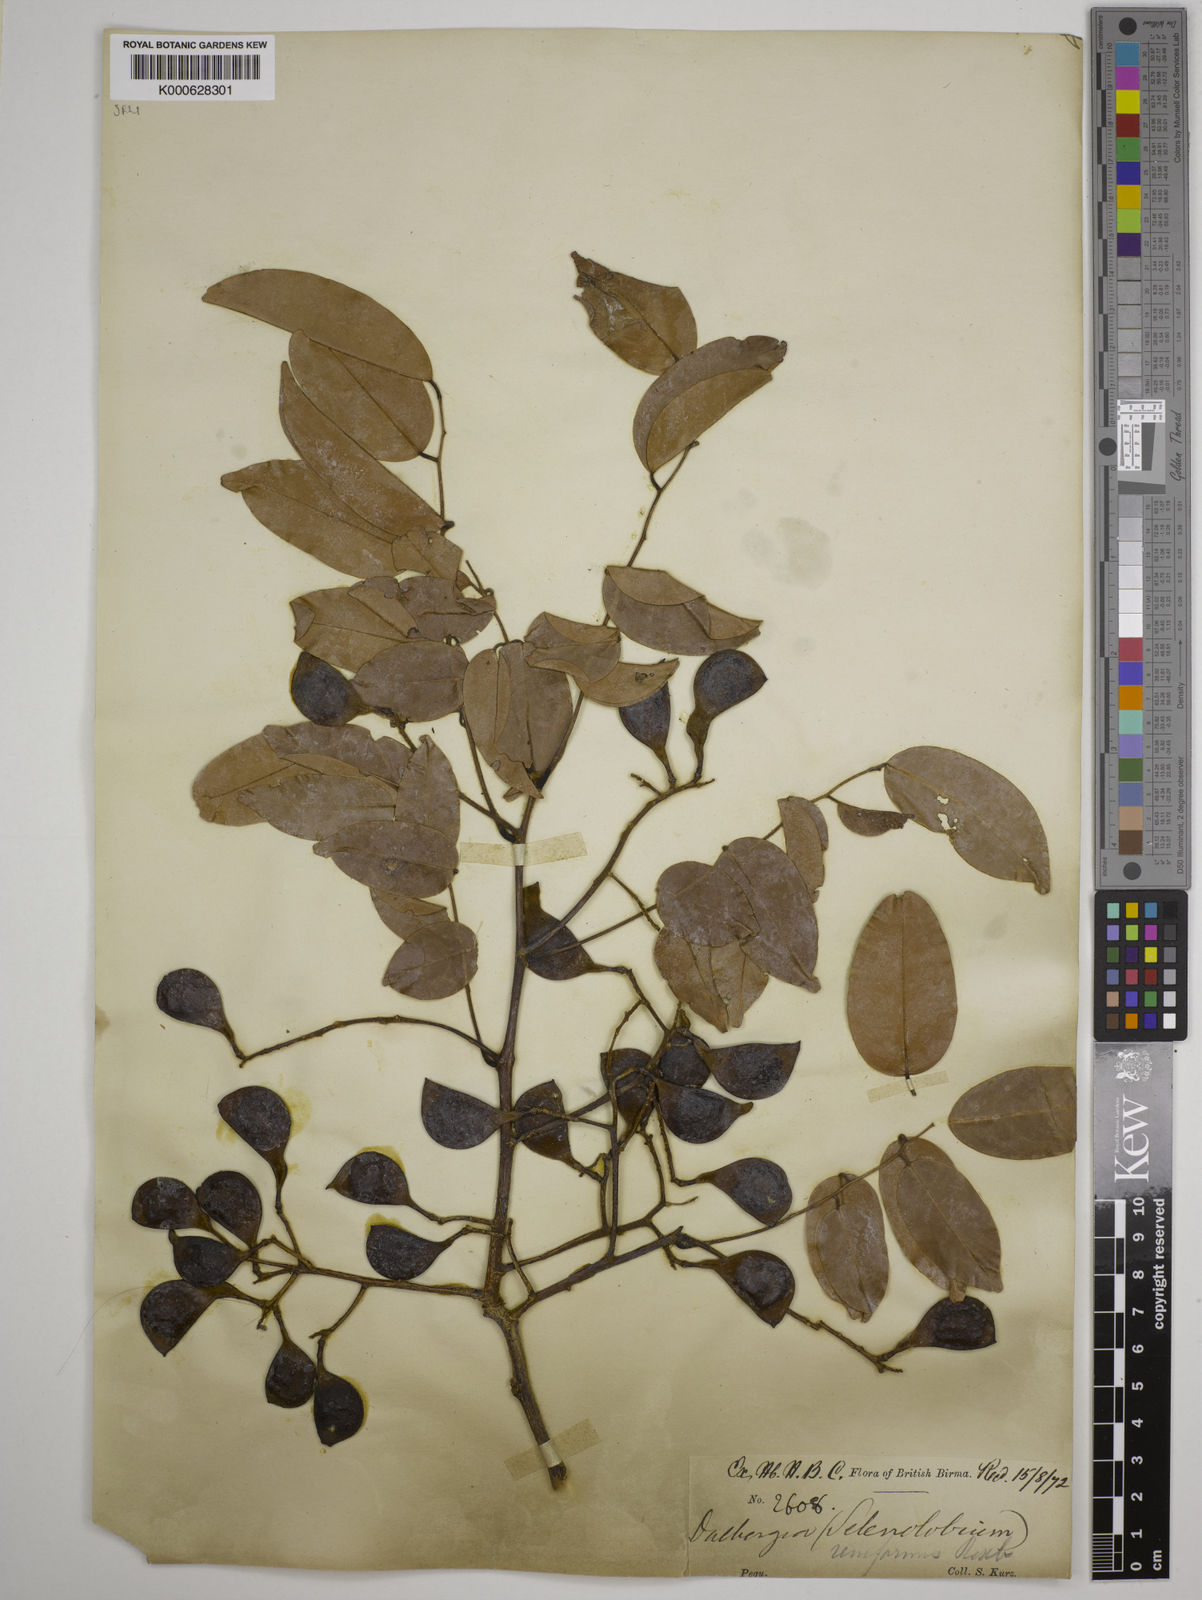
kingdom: Plantae
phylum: Tracheophyta
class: Magnoliopsida
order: Fabales
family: Fabaceae
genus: Dalbergia
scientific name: Dalbergia reniformis
